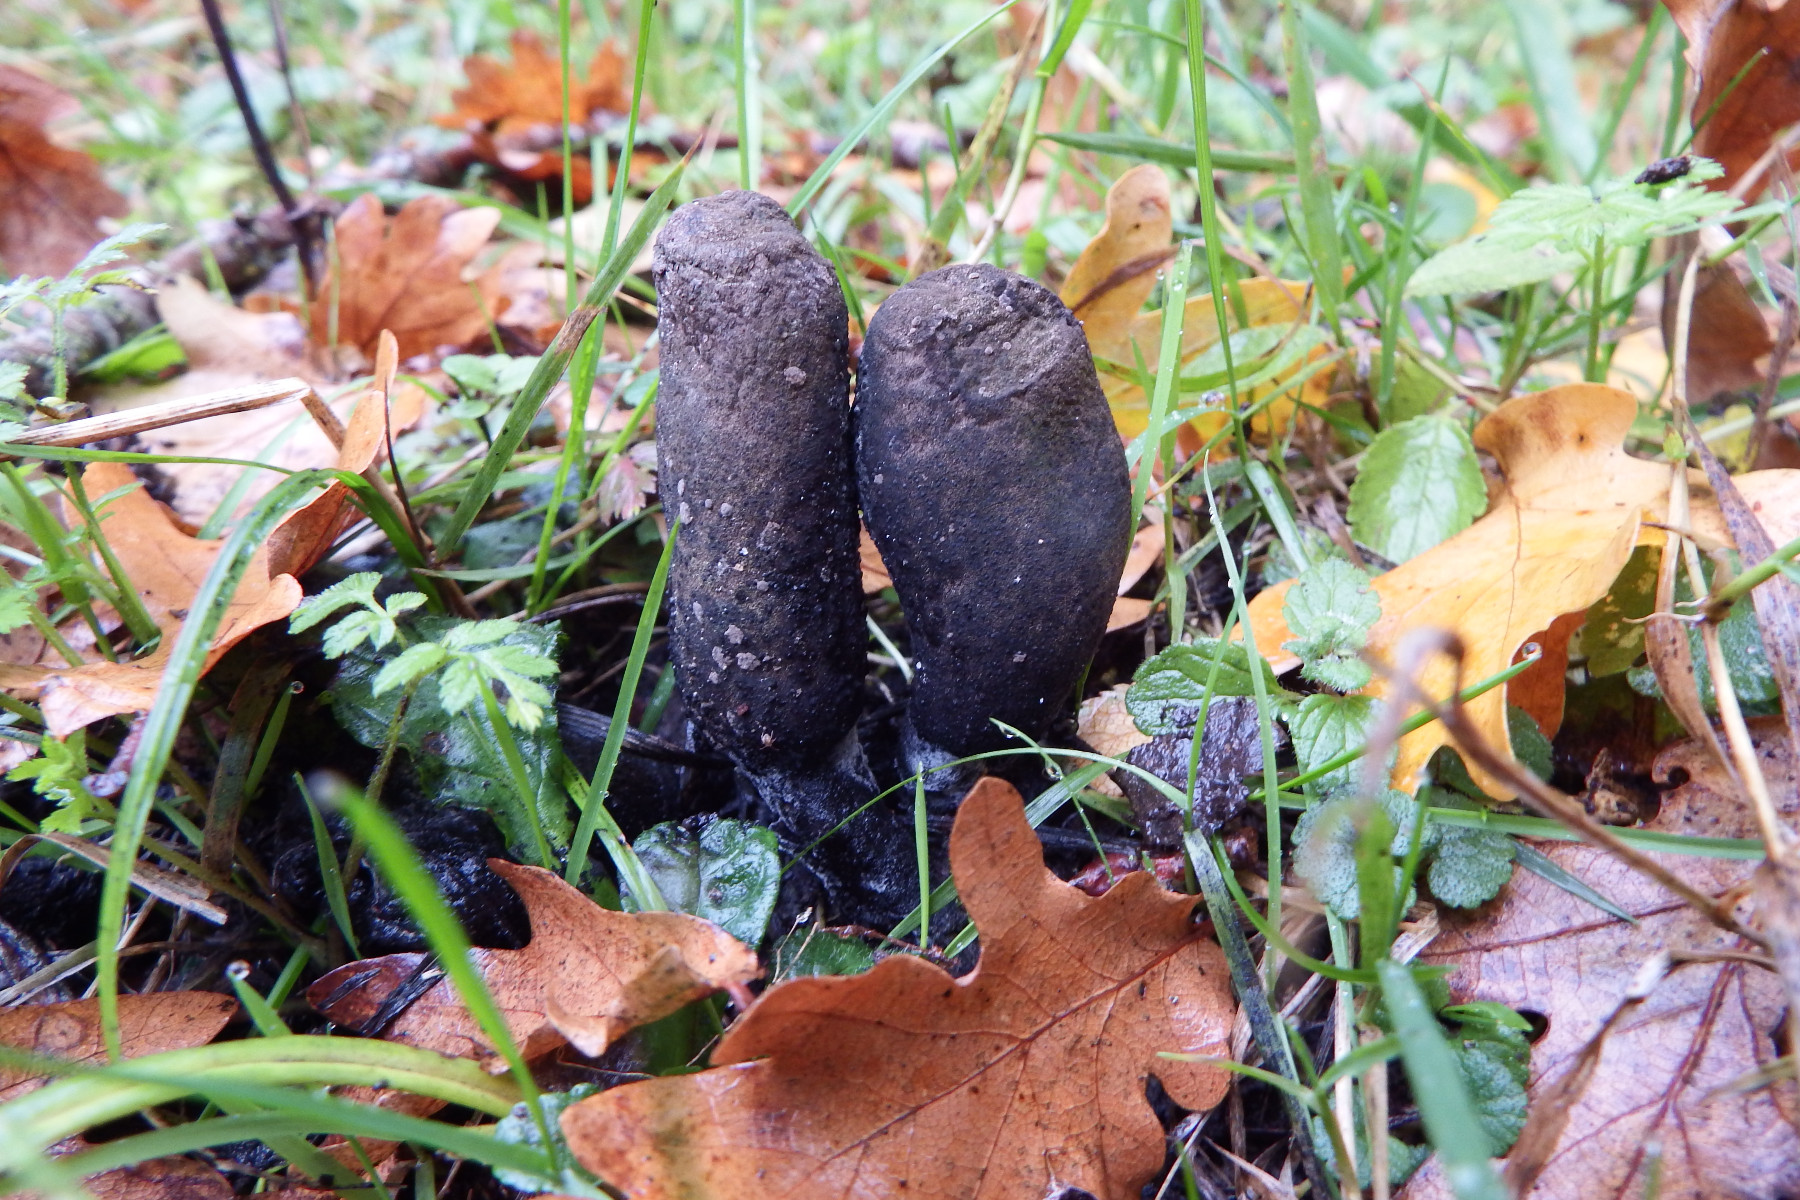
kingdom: Fungi
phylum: Ascomycota
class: Sordariomycetes
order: Xylariales
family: Xylariaceae
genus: Xylaria
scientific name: Xylaria polymorpha
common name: kølle-stødsvamp
